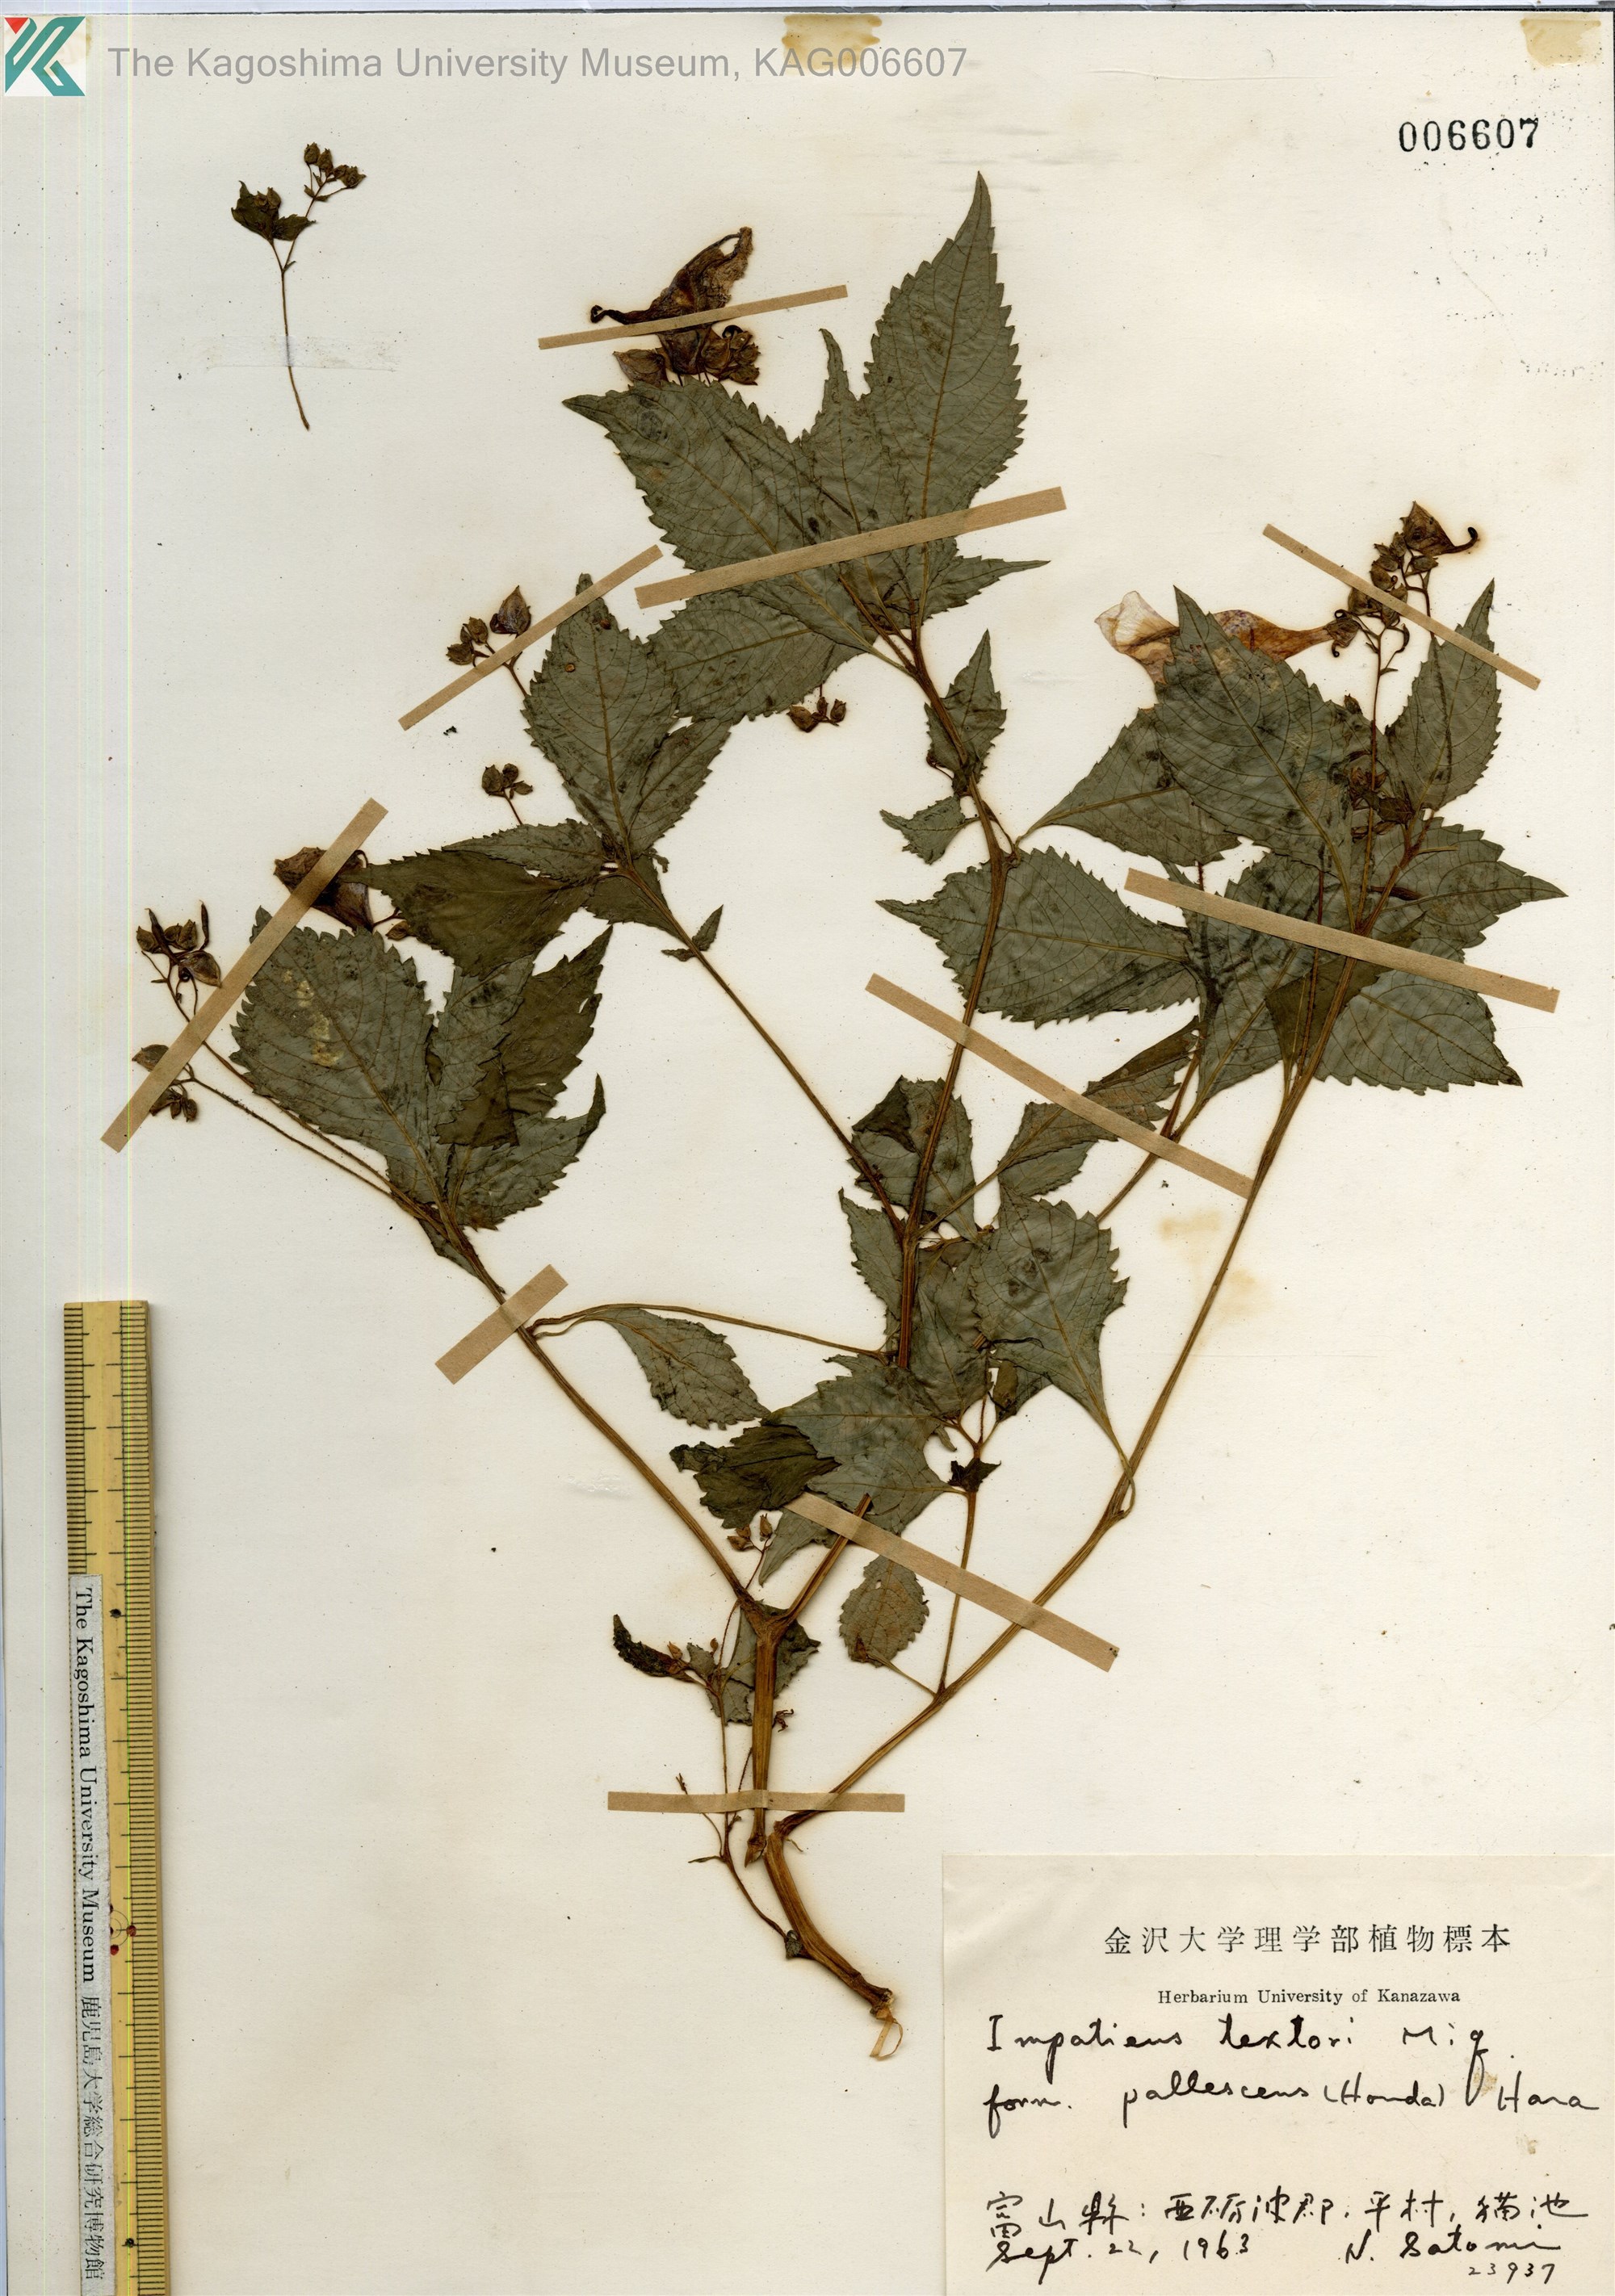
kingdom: Plantae
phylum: Tracheophyta
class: Magnoliopsida
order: Ericales
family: Balsaminaceae
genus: Impatiens
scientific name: Impatiens textorii
